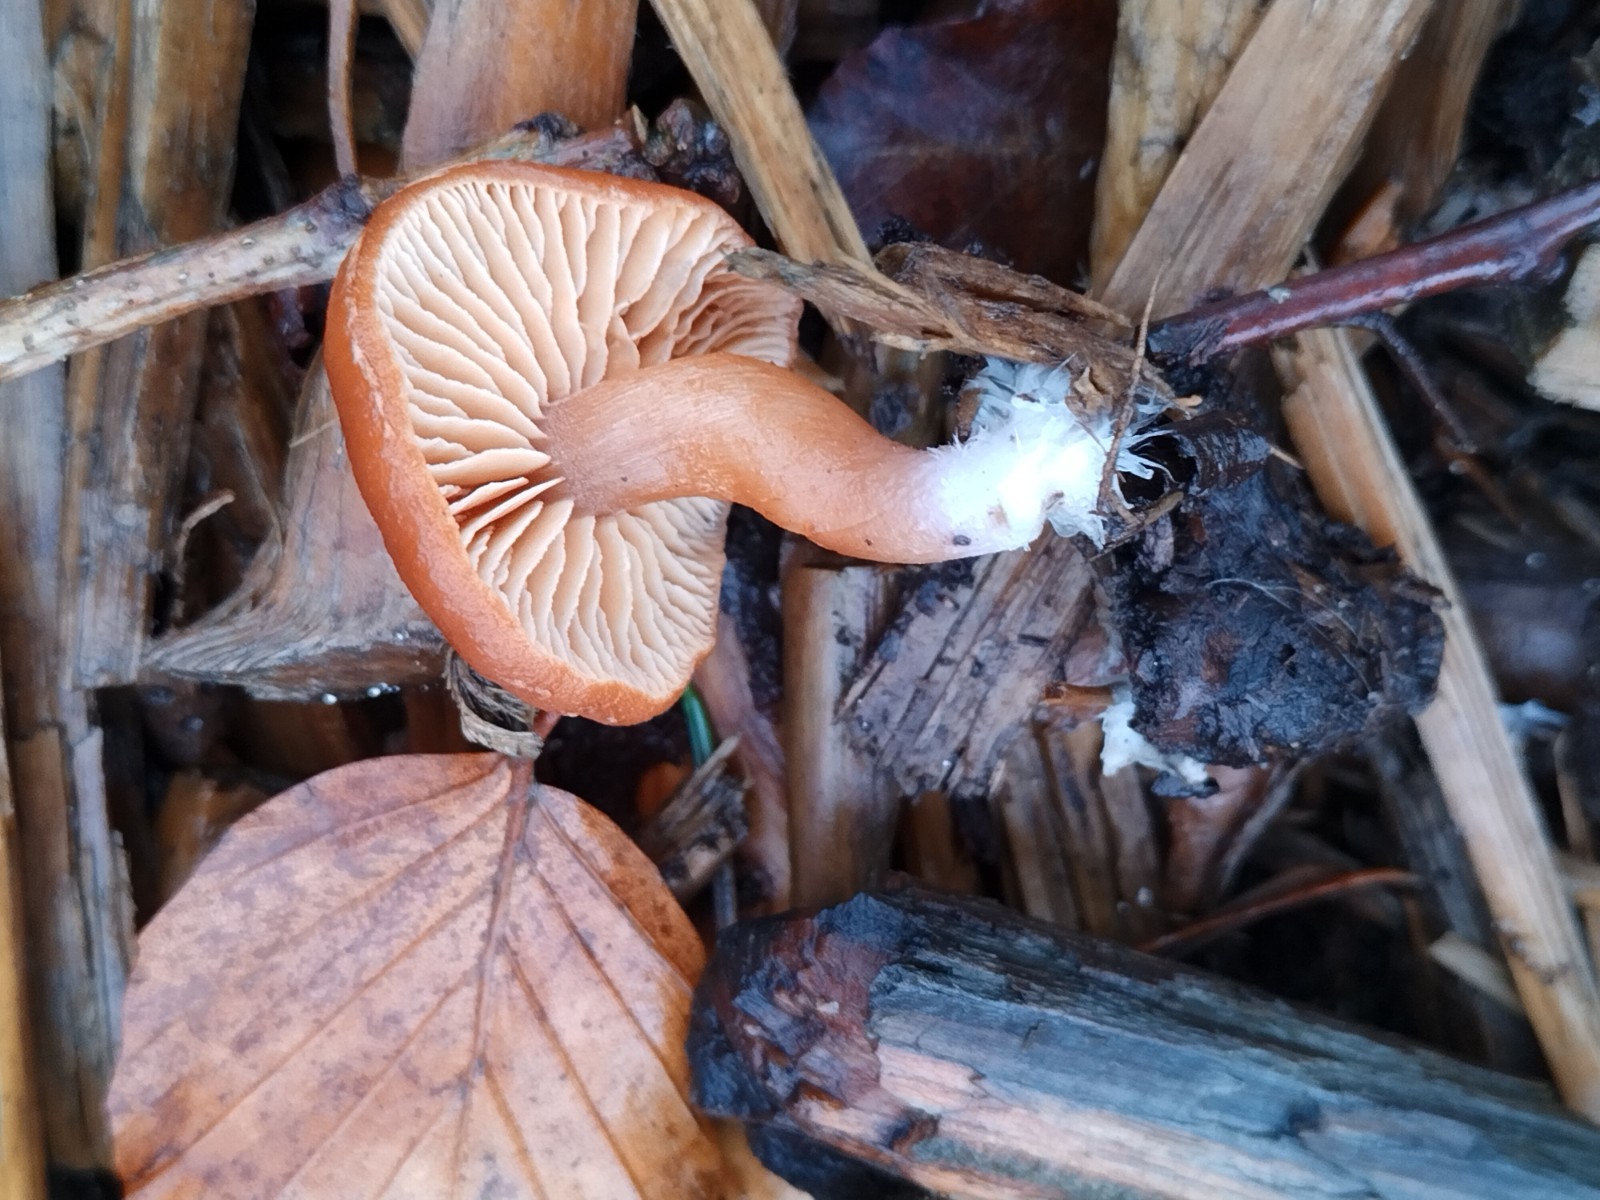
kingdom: Fungi
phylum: Basidiomycota
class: Agaricomycetes
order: Agaricales
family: Tubariaceae
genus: Tubaria
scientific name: Tubaria furfuracea
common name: kliddet fnughat
